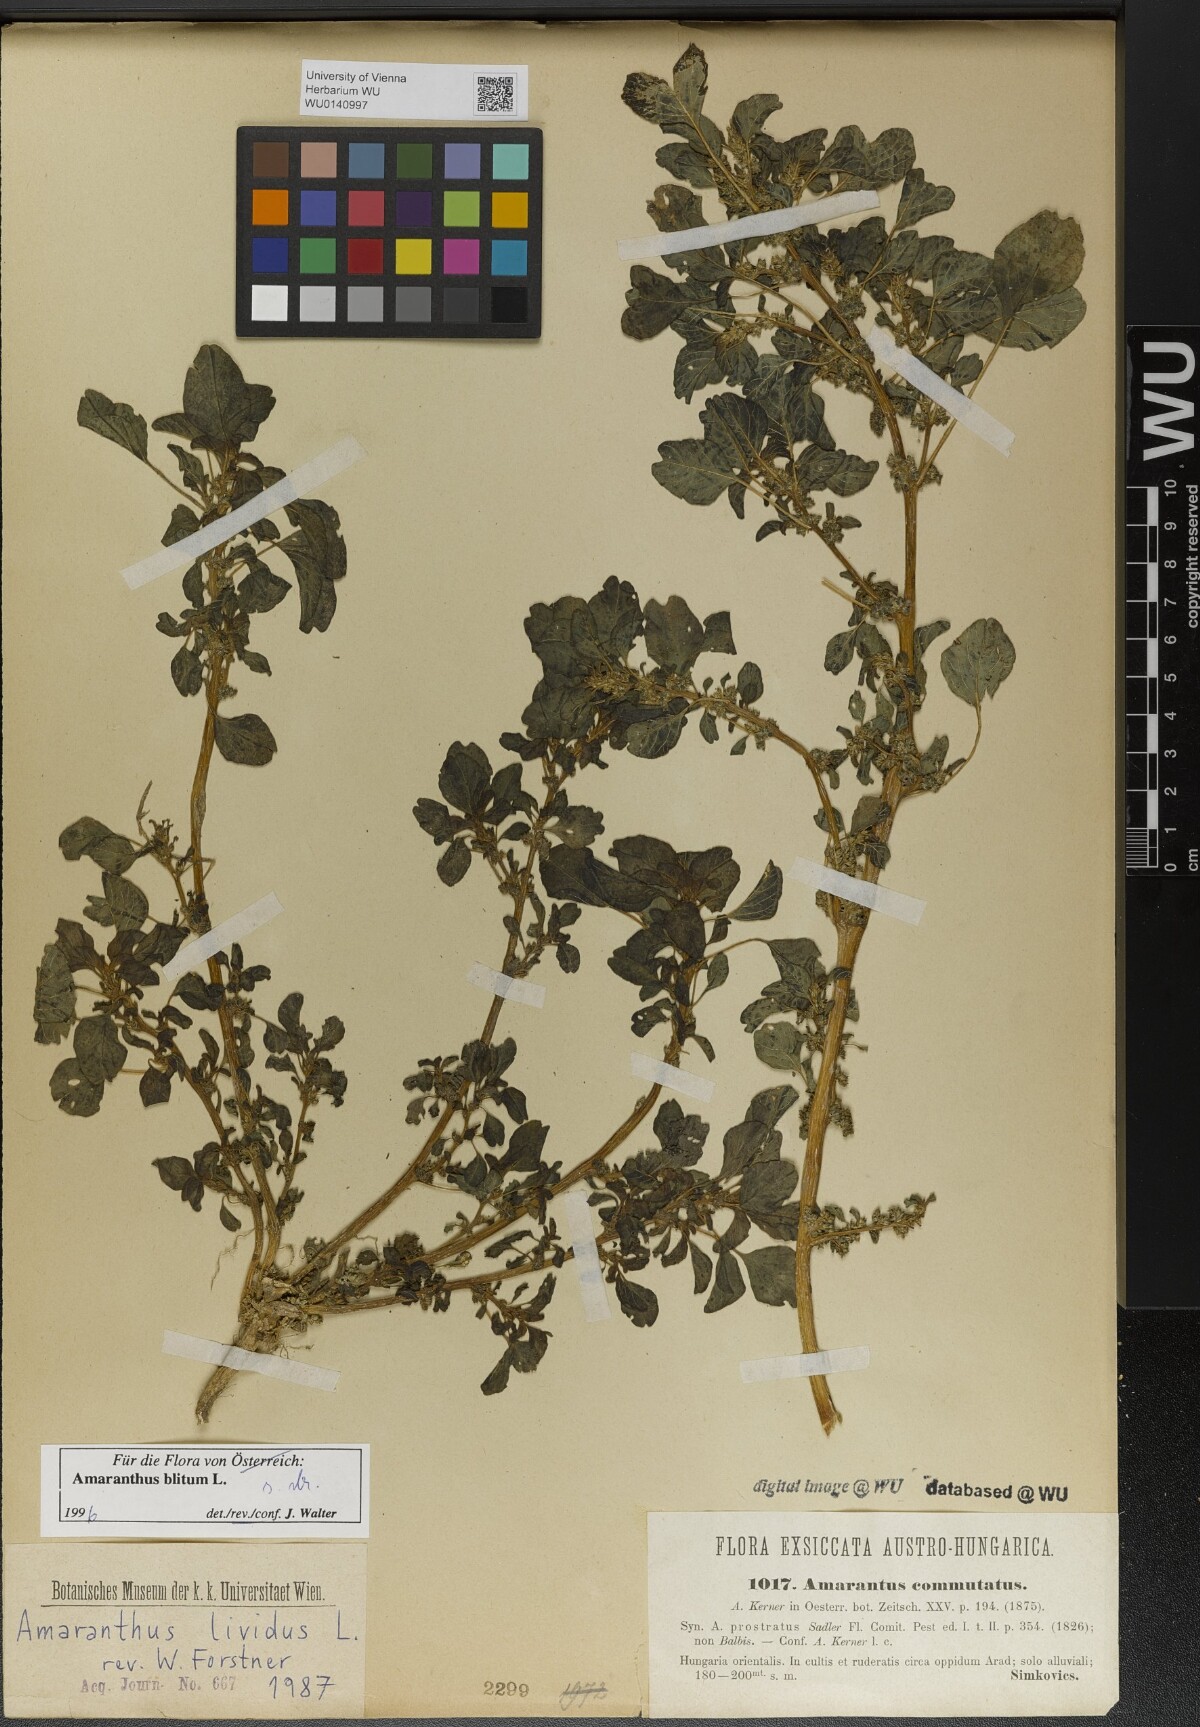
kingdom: Plantae
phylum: Tracheophyta
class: Magnoliopsida
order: Caryophyllales
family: Amaranthaceae
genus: Amaranthus
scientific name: Amaranthus blitum
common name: Purple amaranth
